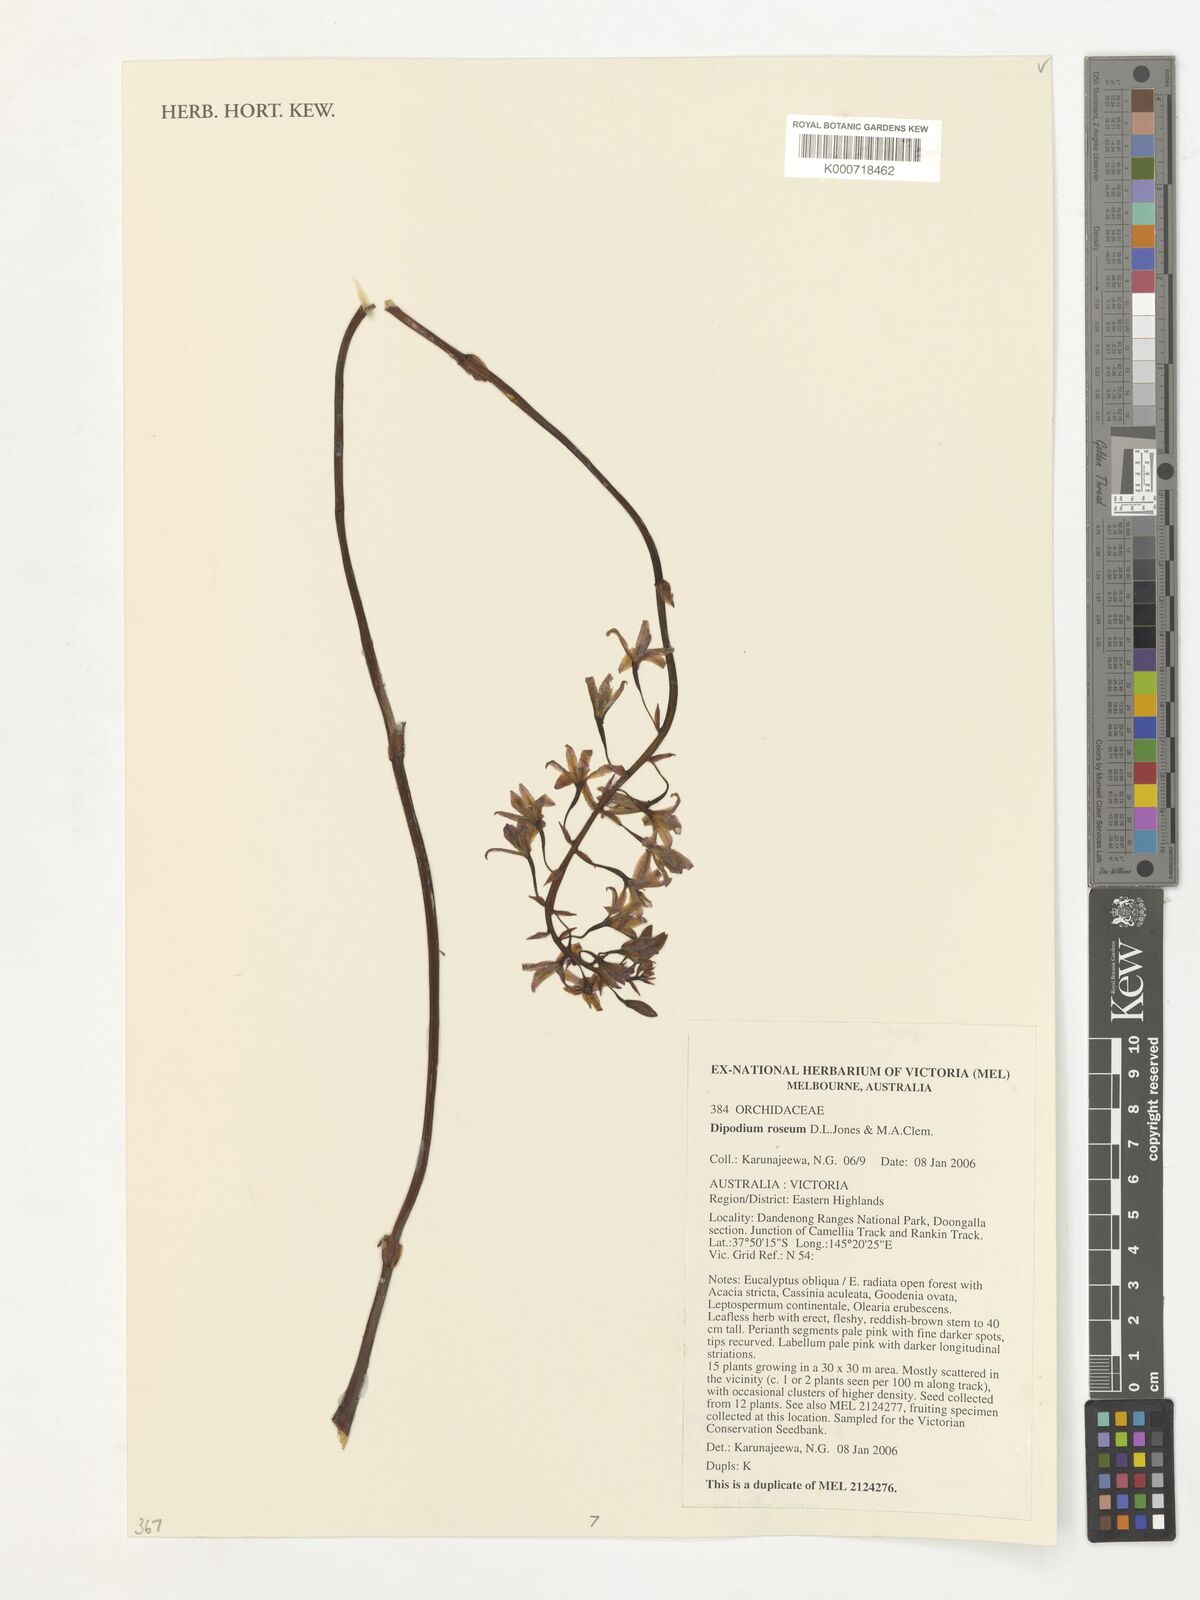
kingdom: Plantae
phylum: Tracheophyta
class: Liliopsida
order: Asparagales
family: Orchidaceae
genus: Dipodium
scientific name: Dipodium roseum
